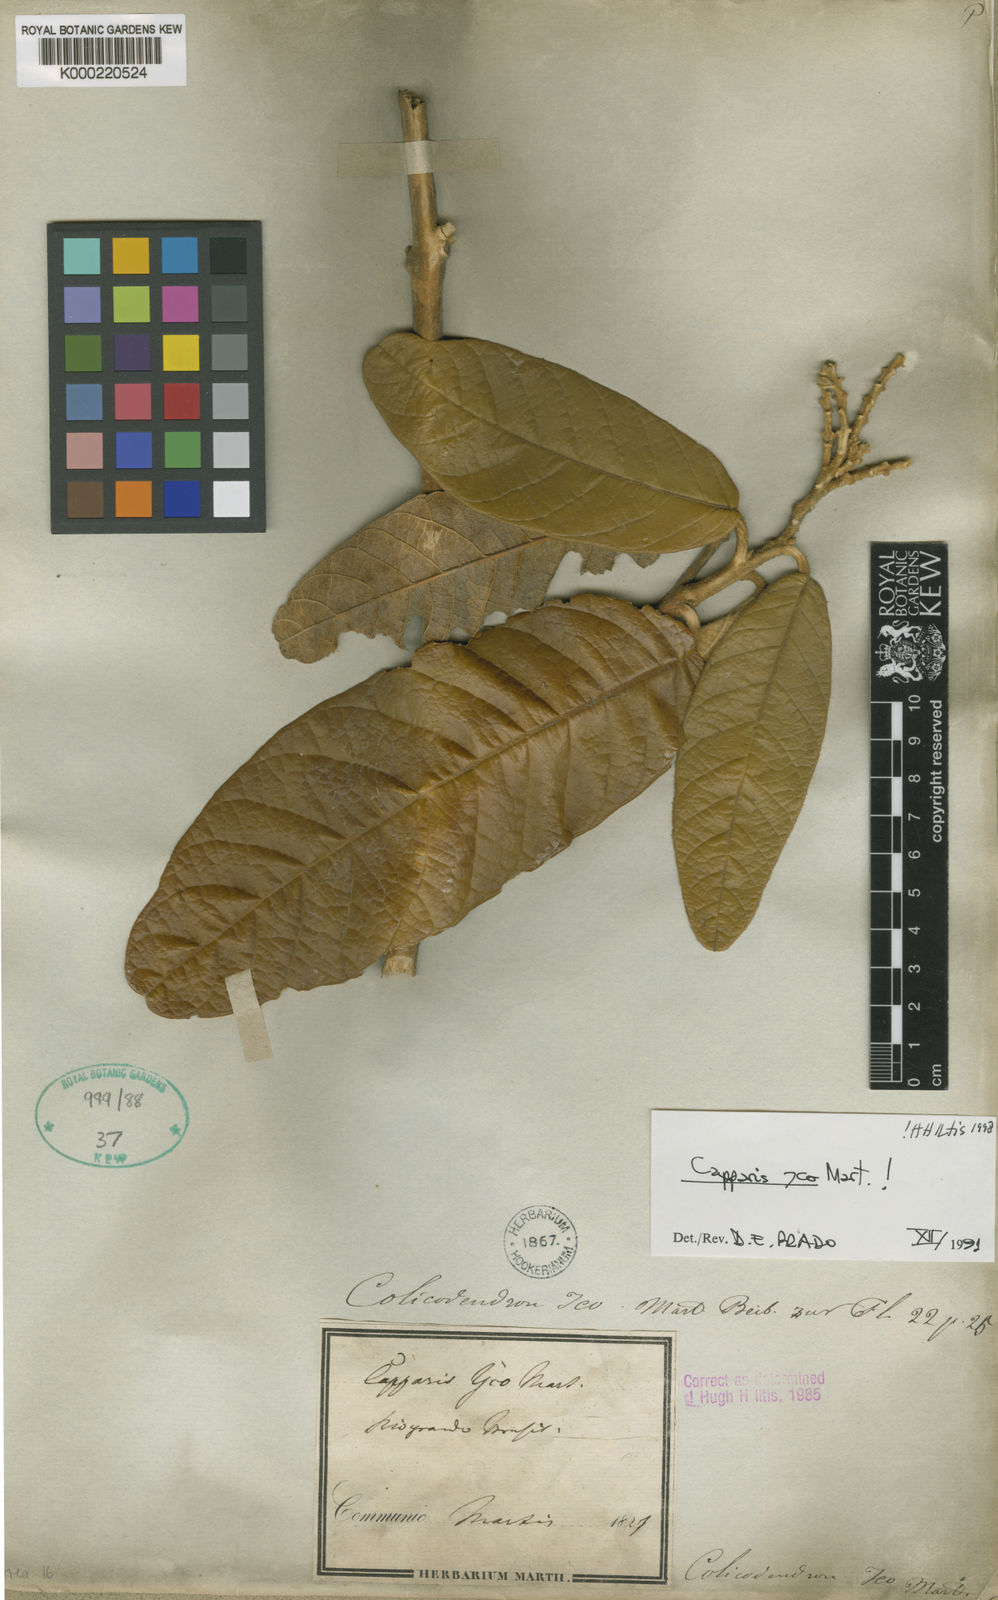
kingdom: Plantae
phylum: Tracheophyta
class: Magnoliopsida
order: Brassicales
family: Capparaceae
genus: Colicodendron
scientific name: Colicodendron yco
